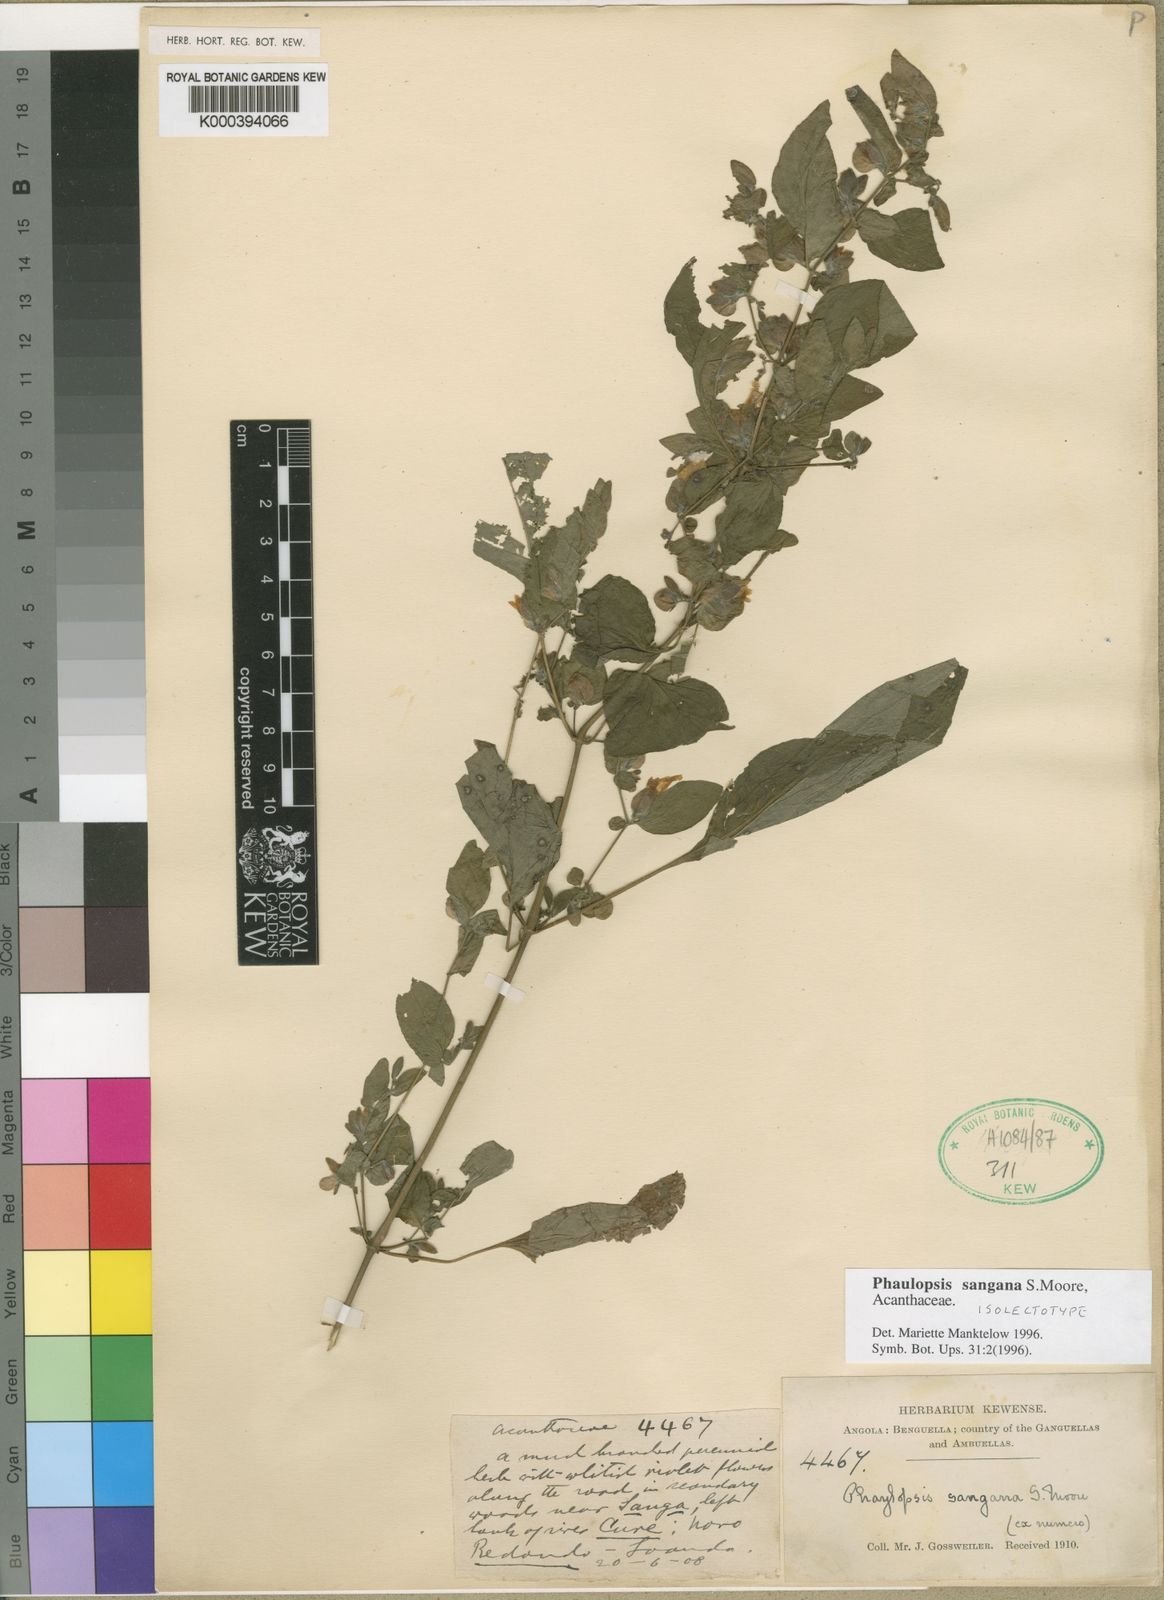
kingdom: Plantae
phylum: Tracheophyta
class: Magnoliopsida
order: Lamiales
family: Acanthaceae
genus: Phaulopsis
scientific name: Phaulopsis sangana
